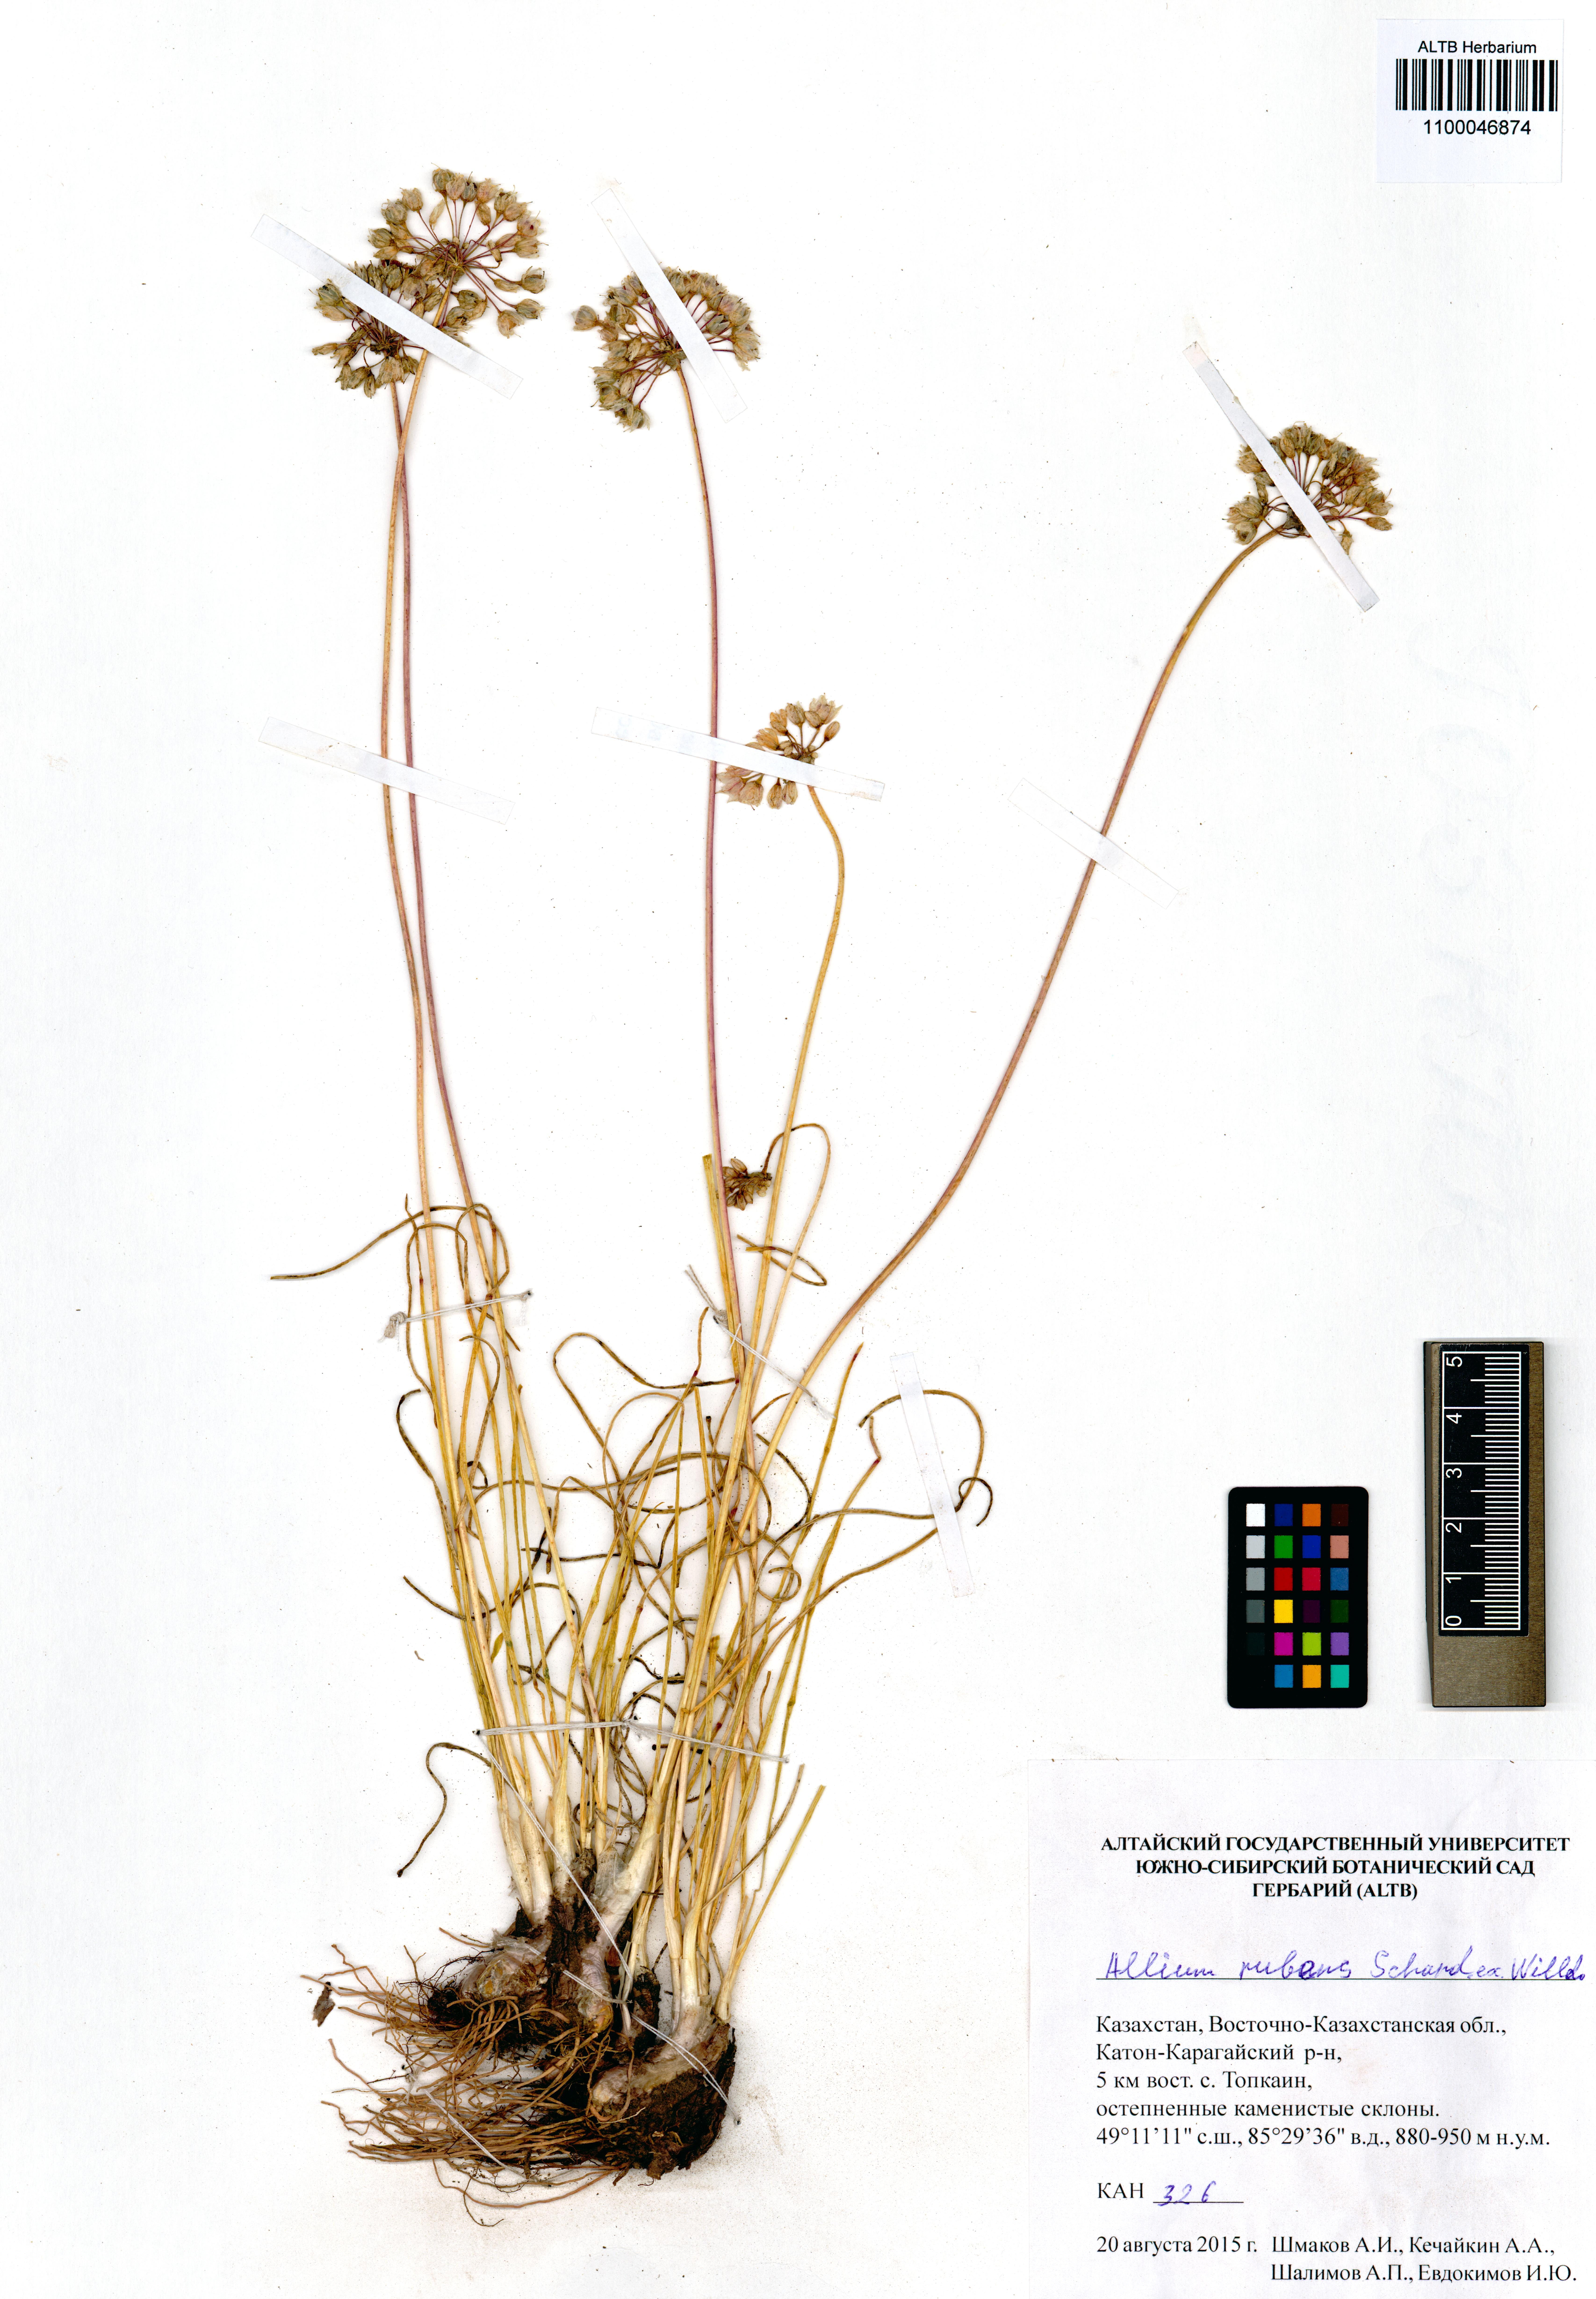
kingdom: Plantae
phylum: Tracheophyta
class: Liliopsida
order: Asparagales
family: Amaryllidaceae
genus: Allium
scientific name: Allium rubens
